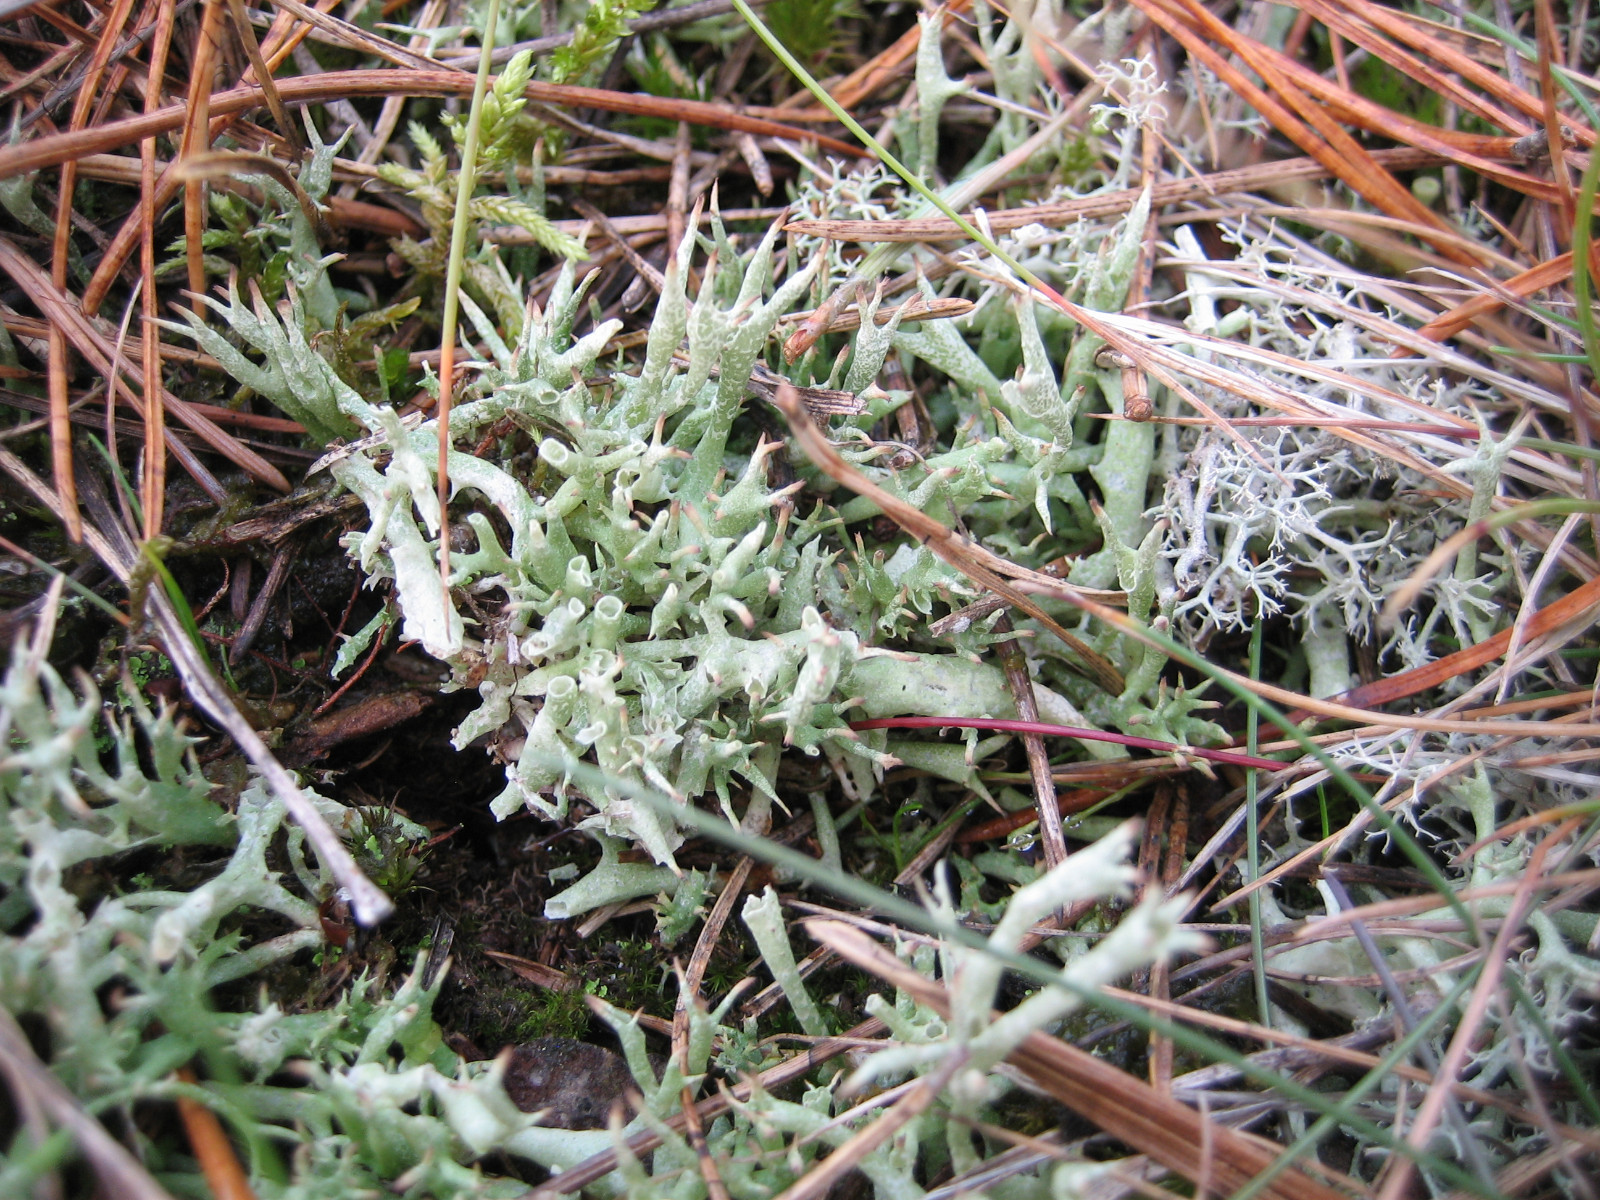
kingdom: Fungi
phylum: Ascomycota
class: Lecanoromycetes
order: Lecanorales
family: Cladoniaceae
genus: Cladonia
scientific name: Cladonia uncialis
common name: pigget bægerlav
